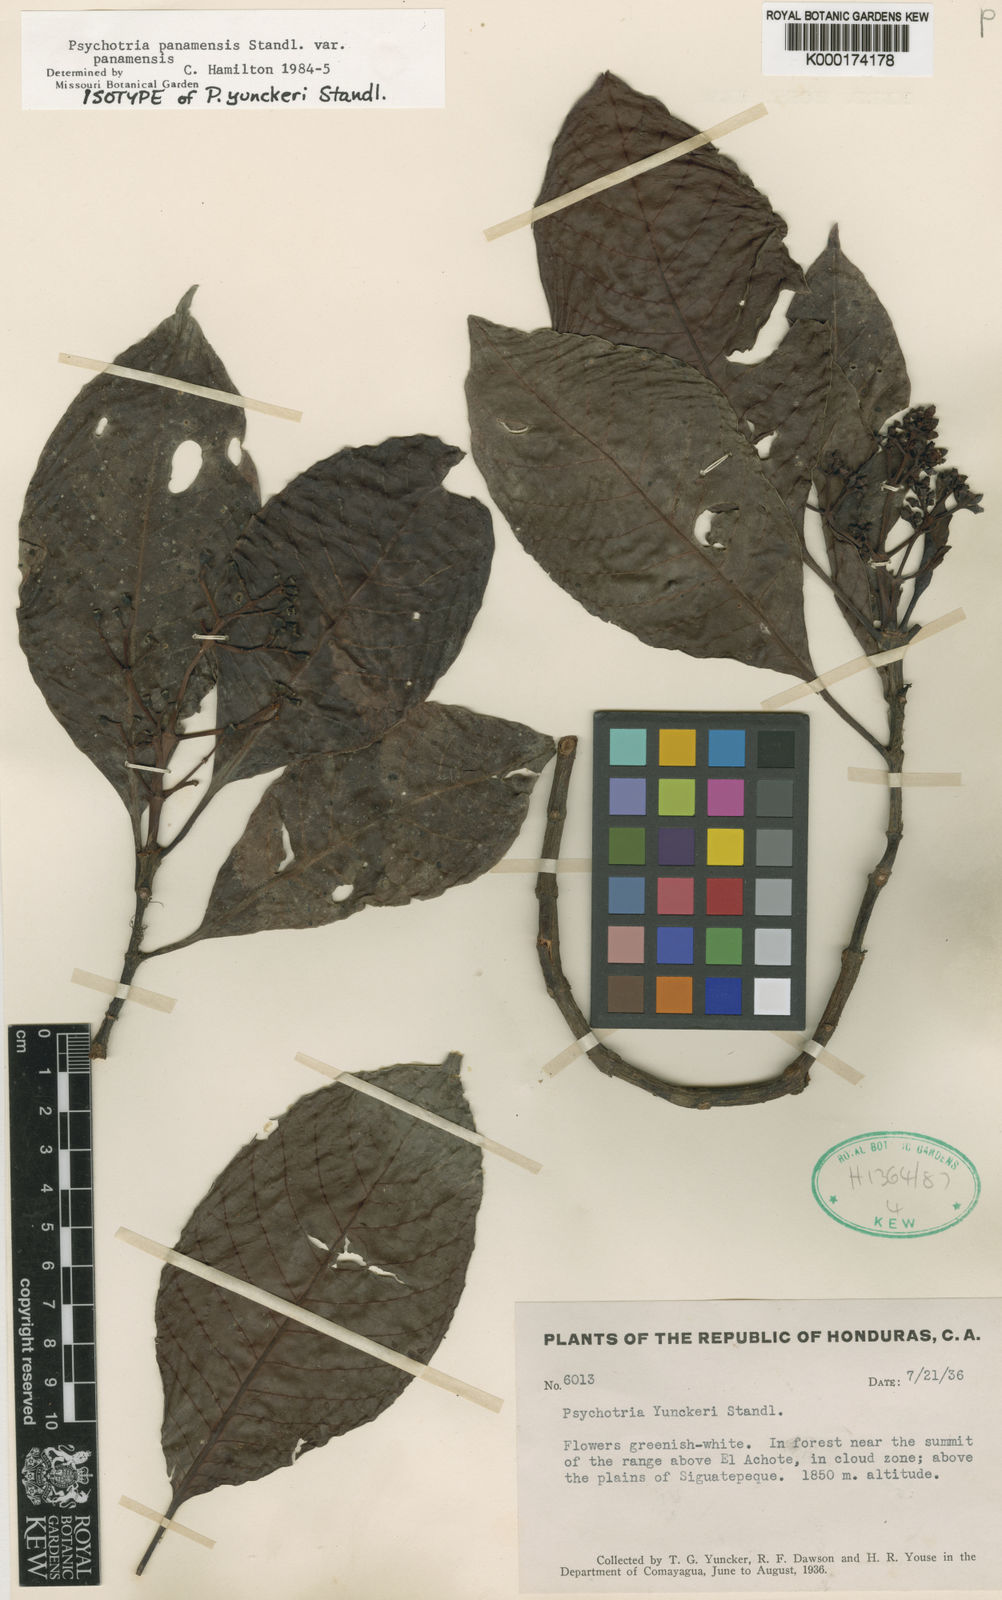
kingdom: Plantae
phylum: Tracheophyta
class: Magnoliopsida
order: Gentianales
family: Rubiaceae
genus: Psychotria
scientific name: Psychotria panamensis
